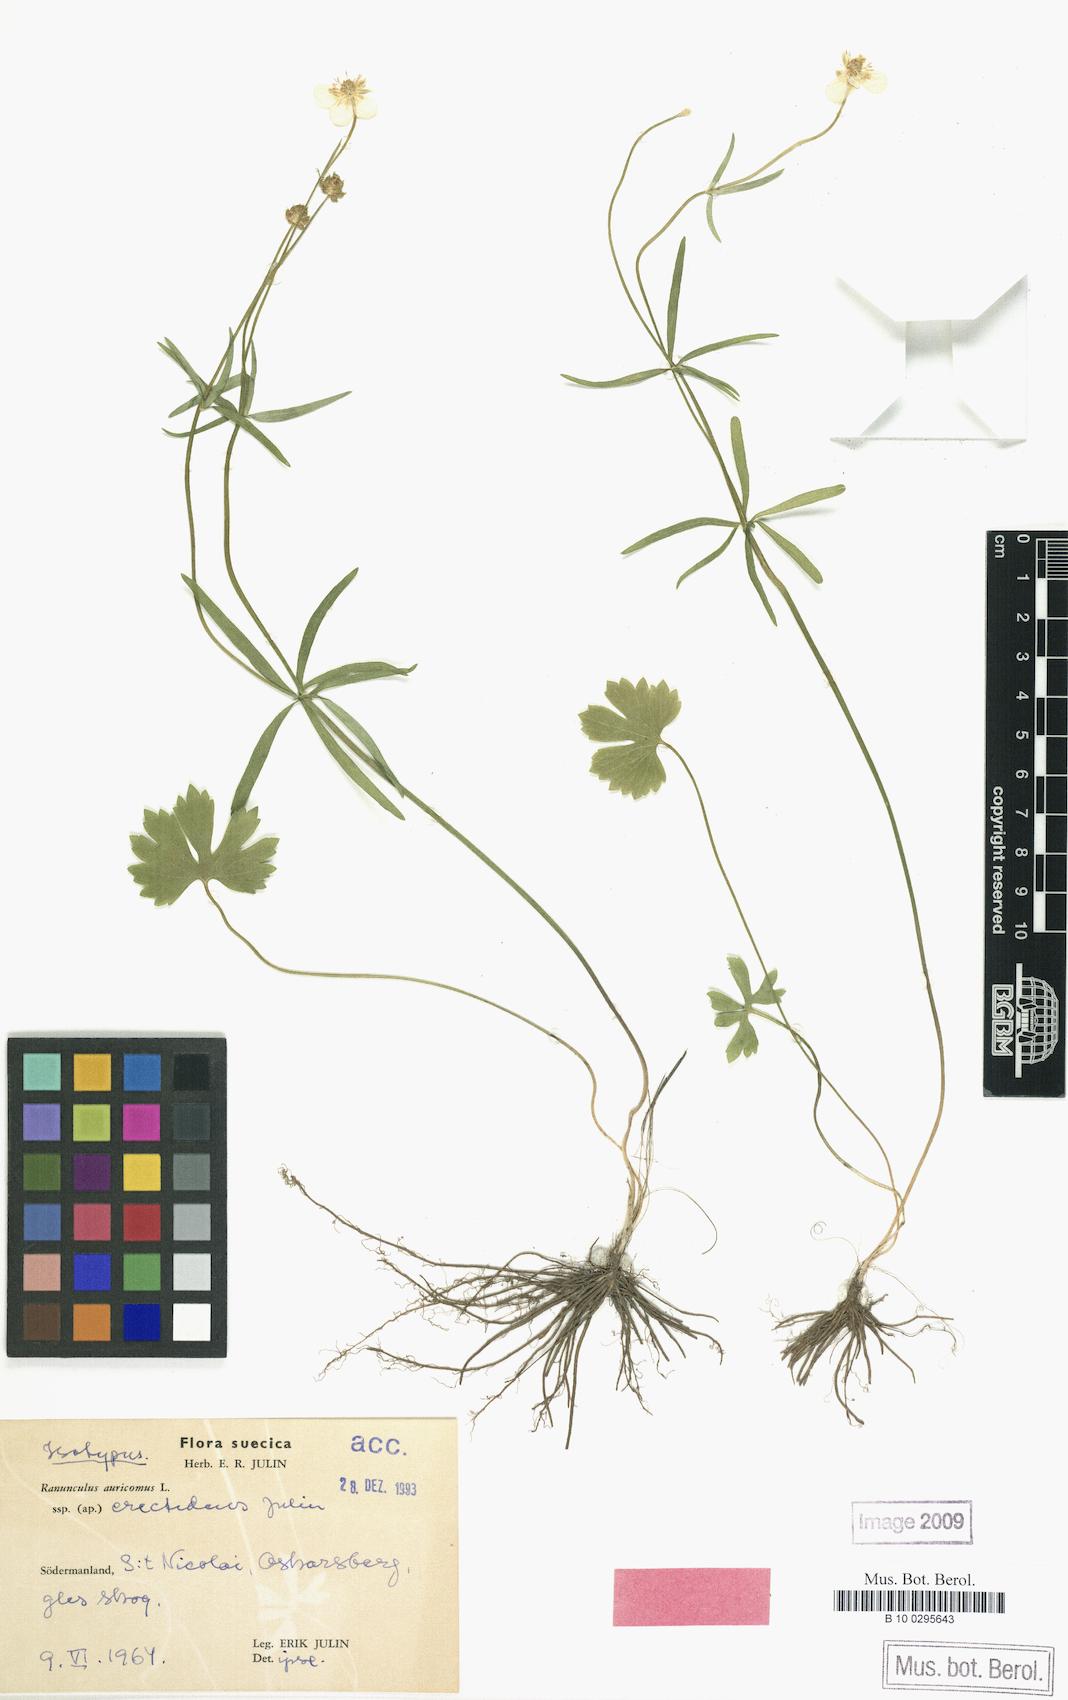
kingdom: Plantae
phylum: Tracheophyta
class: Magnoliopsida
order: Ranunculales
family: Ranunculaceae
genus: Ranunculus
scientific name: Ranunculus erectidens
